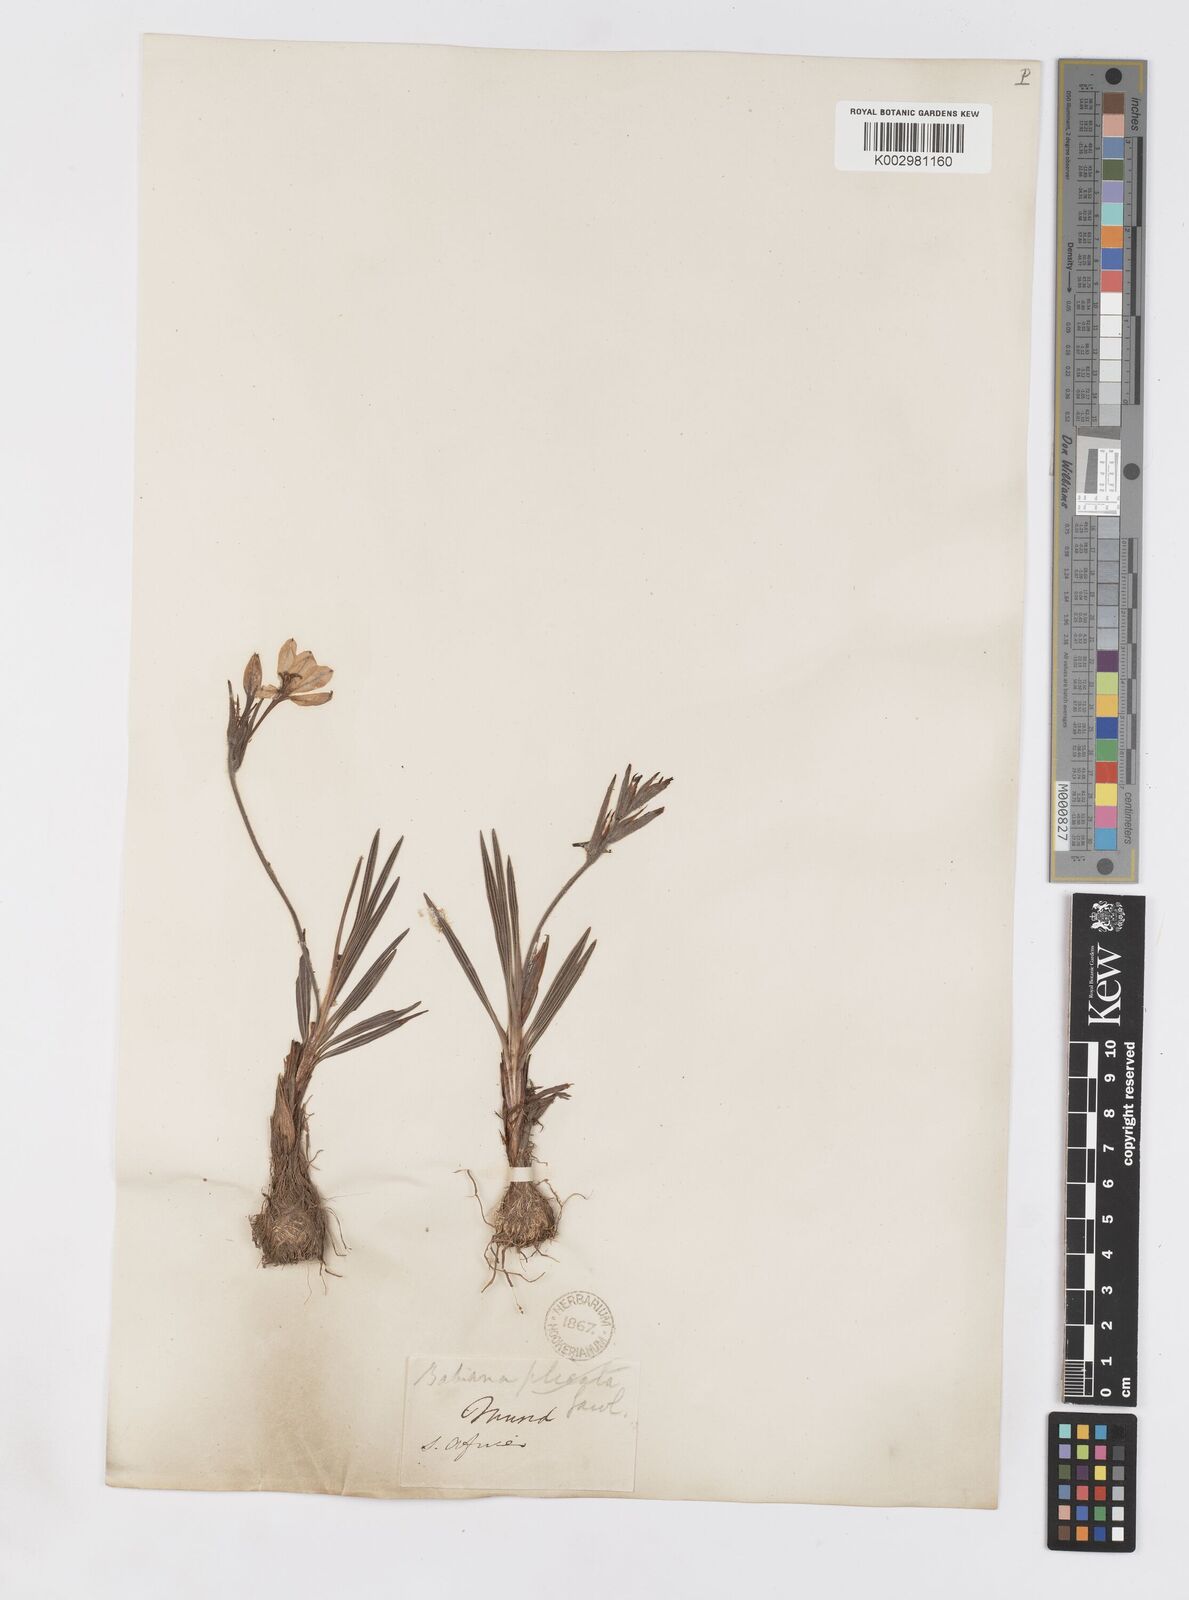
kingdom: Plantae
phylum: Tracheophyta
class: Liliopsida
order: Asparagales
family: Iridaceae
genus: Babiana
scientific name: Babiana
